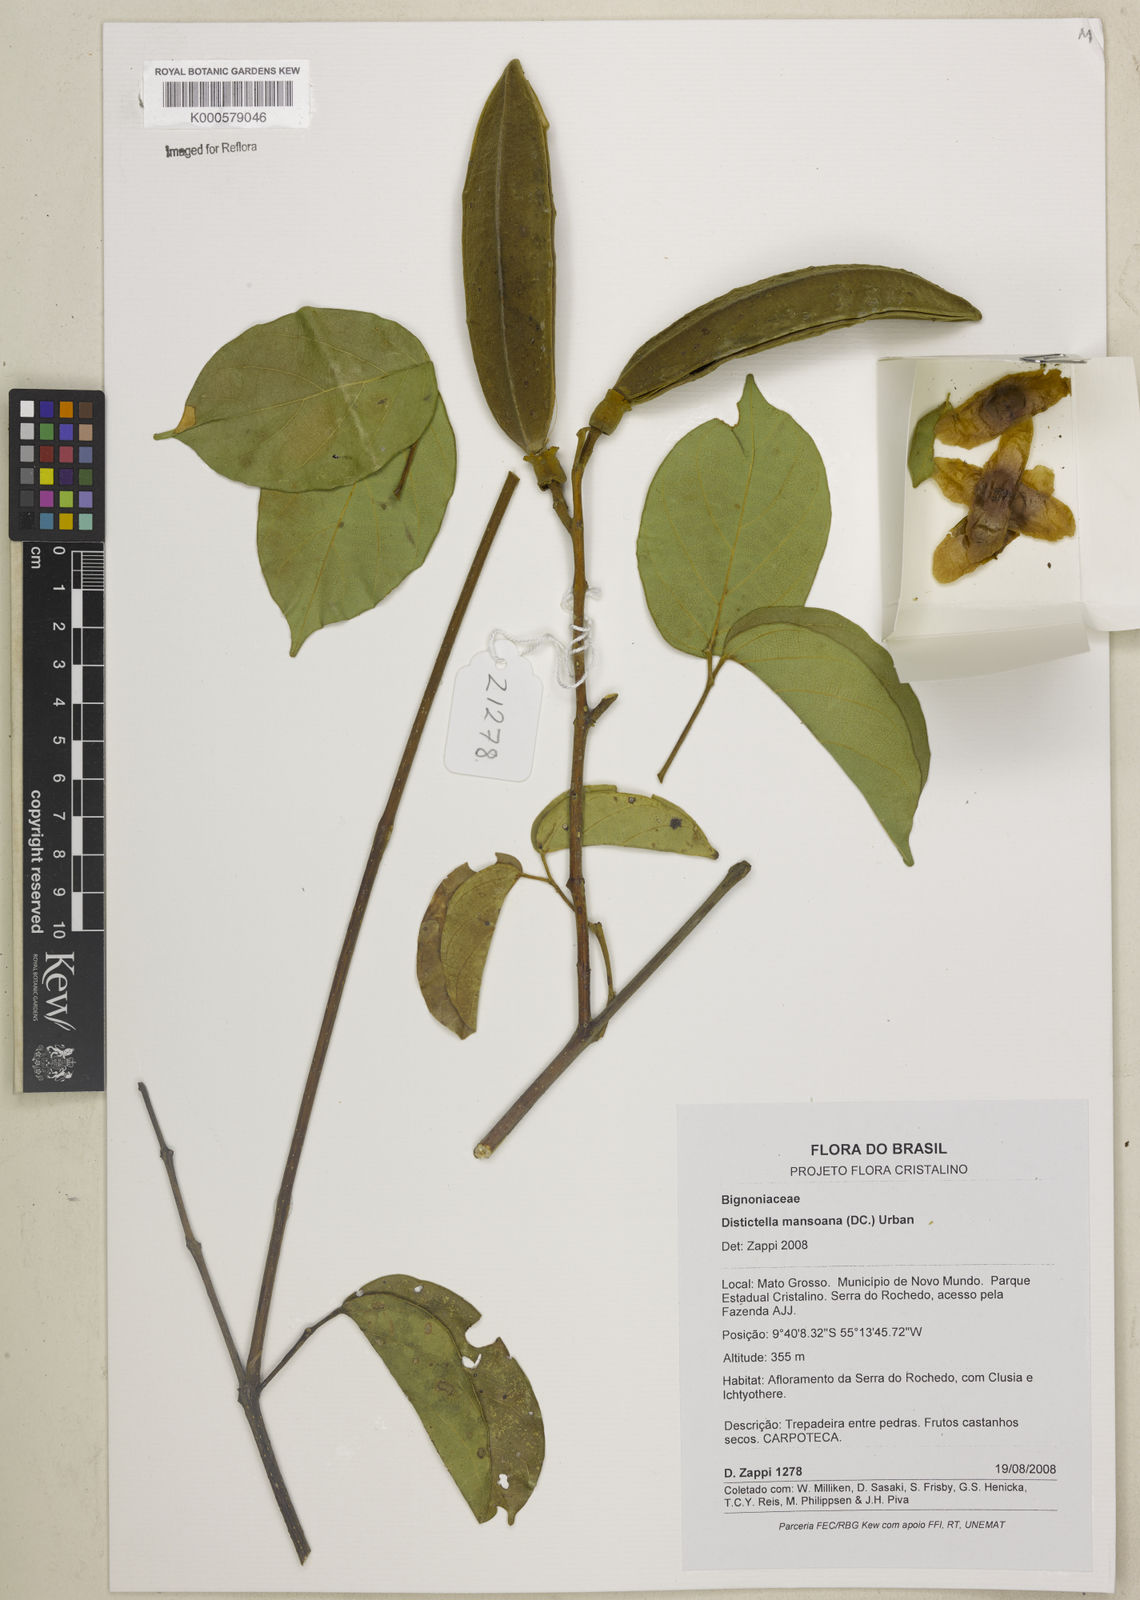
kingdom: Plantae
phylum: Tracheophyta
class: Magnoliopsida
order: Lamiales
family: Bignoniaceae
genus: Amphilophium
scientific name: Amphilophium mansoanum
